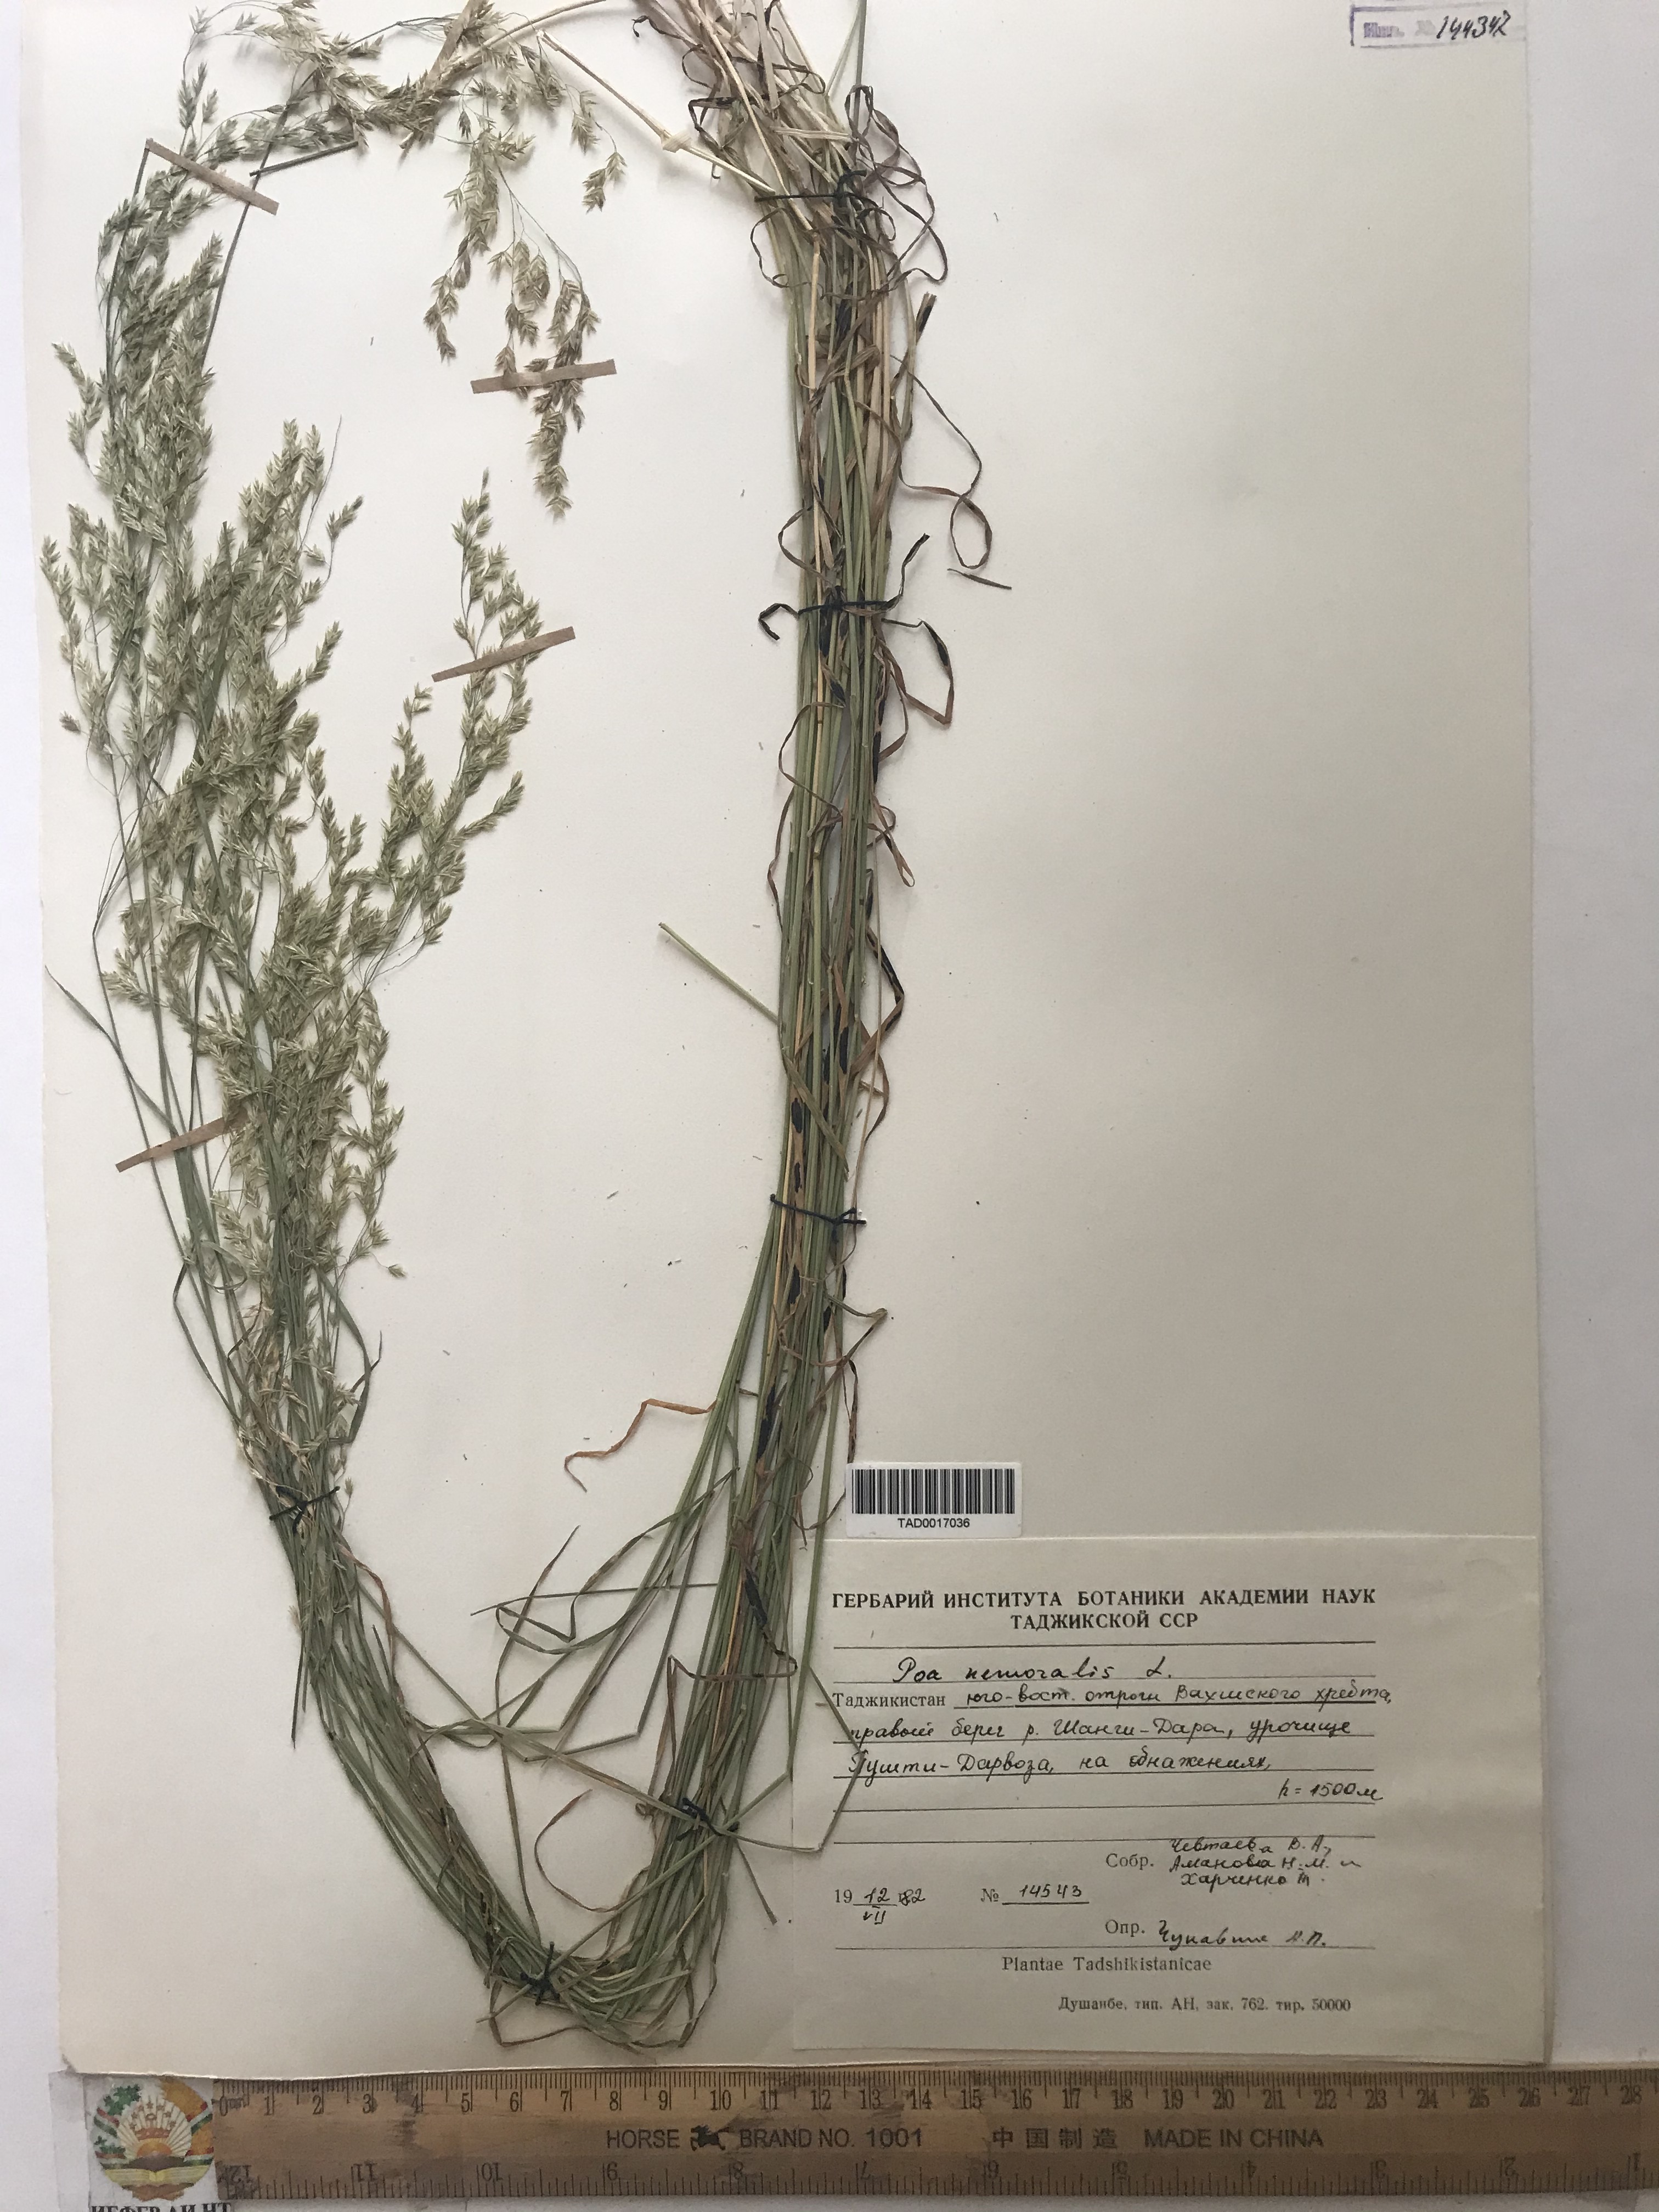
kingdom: Plantae
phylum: Tracheophyta
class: Liliopsida
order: Poales
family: Poaceae
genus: Poa
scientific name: Poa nemoralis
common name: Wood bluegrass
